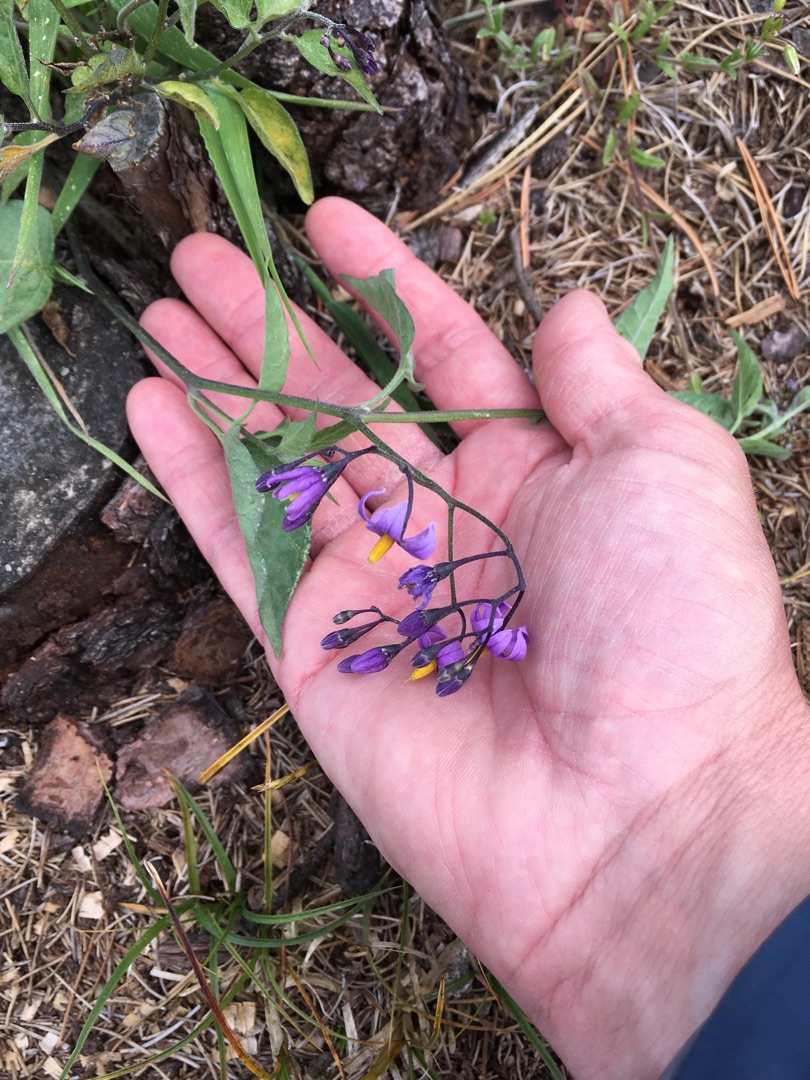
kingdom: Plantae
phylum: Tracheophyta
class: Magnoliopsida
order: Solanales
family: Solanaceae
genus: Solanum
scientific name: Solanum dulcamara
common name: Bittersød natskygge
